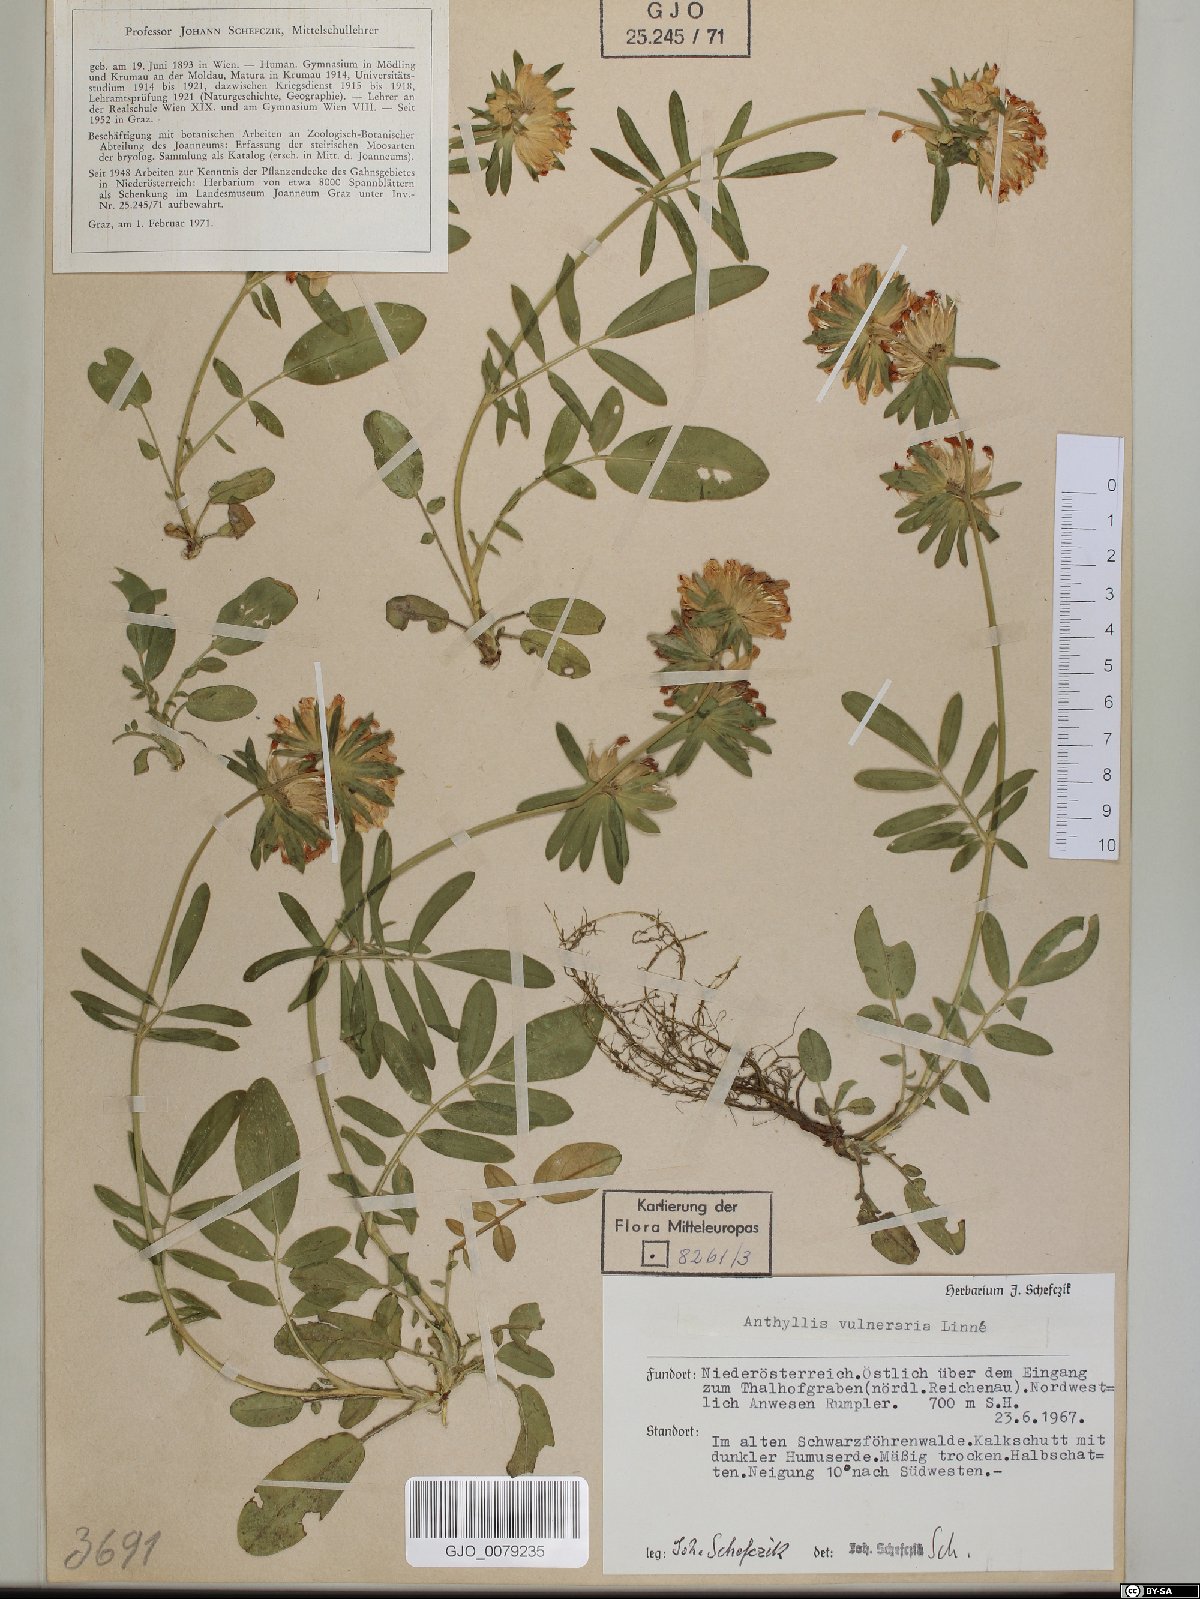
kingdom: Plantae
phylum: Tracheophyta
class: Magnoliopsida
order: Fabales
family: Fabaceae
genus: Anthyllis
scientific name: Anthyllis vulneraria
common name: Kidney vetch
